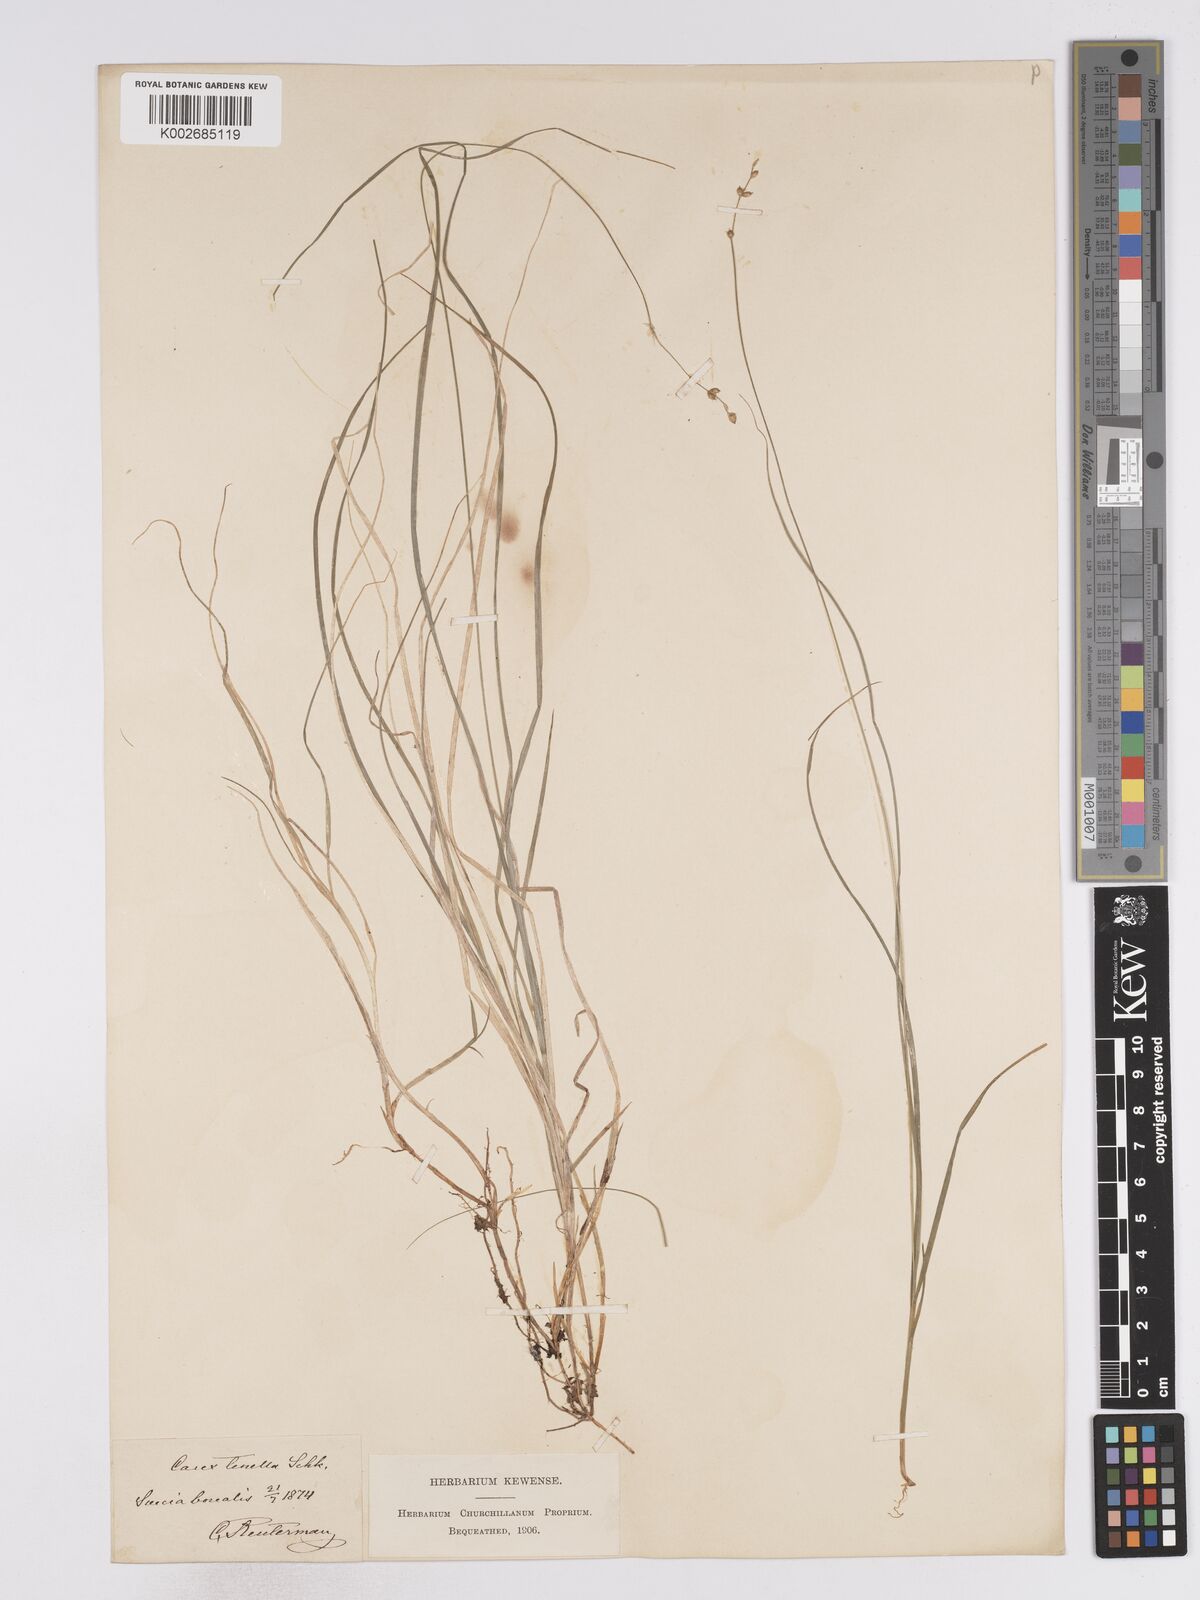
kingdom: Plantae
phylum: Tracheophyta
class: Liliopsida
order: Poales
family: Cyperaceae
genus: Carex
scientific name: Carex disperma
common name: Short-leaved sedge
